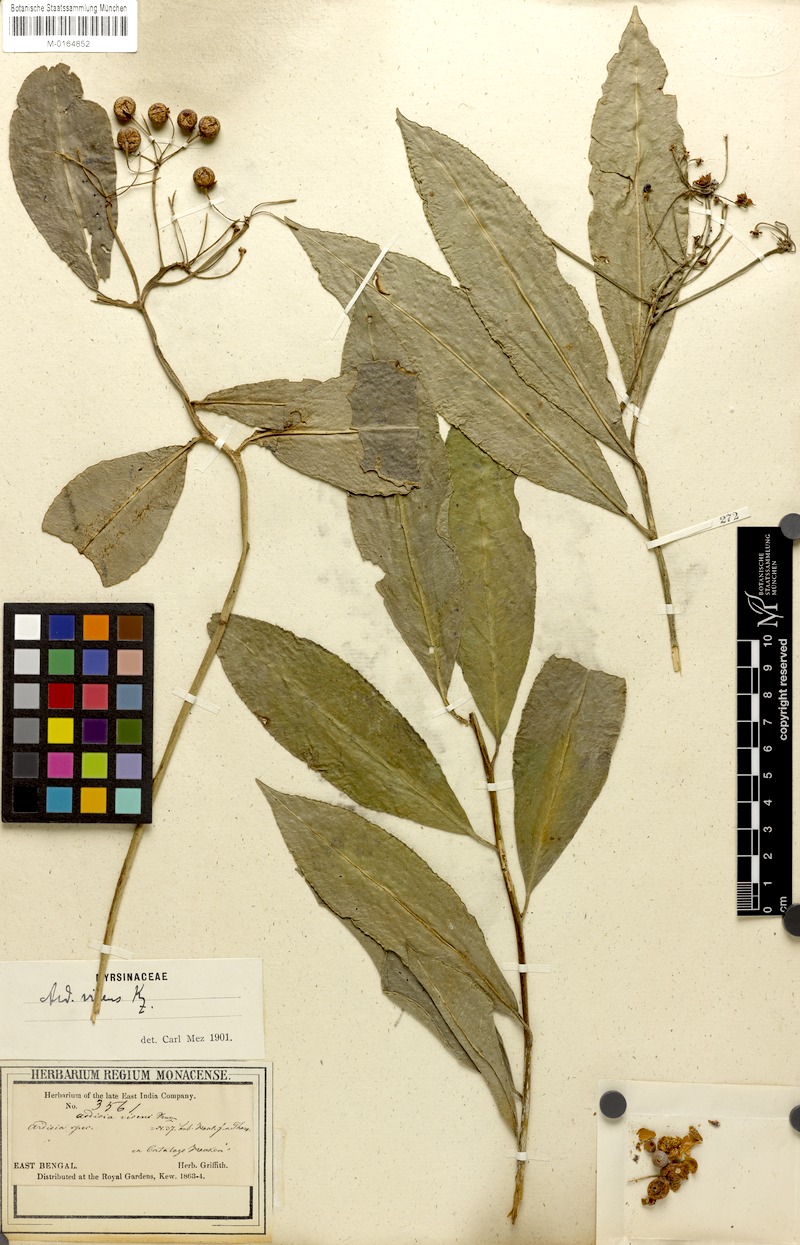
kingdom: Plantae
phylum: Tracheophyta
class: Magnoliopsida
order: Ericales
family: Primulaceae
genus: Ardisia
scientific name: Ardisia polysticta
